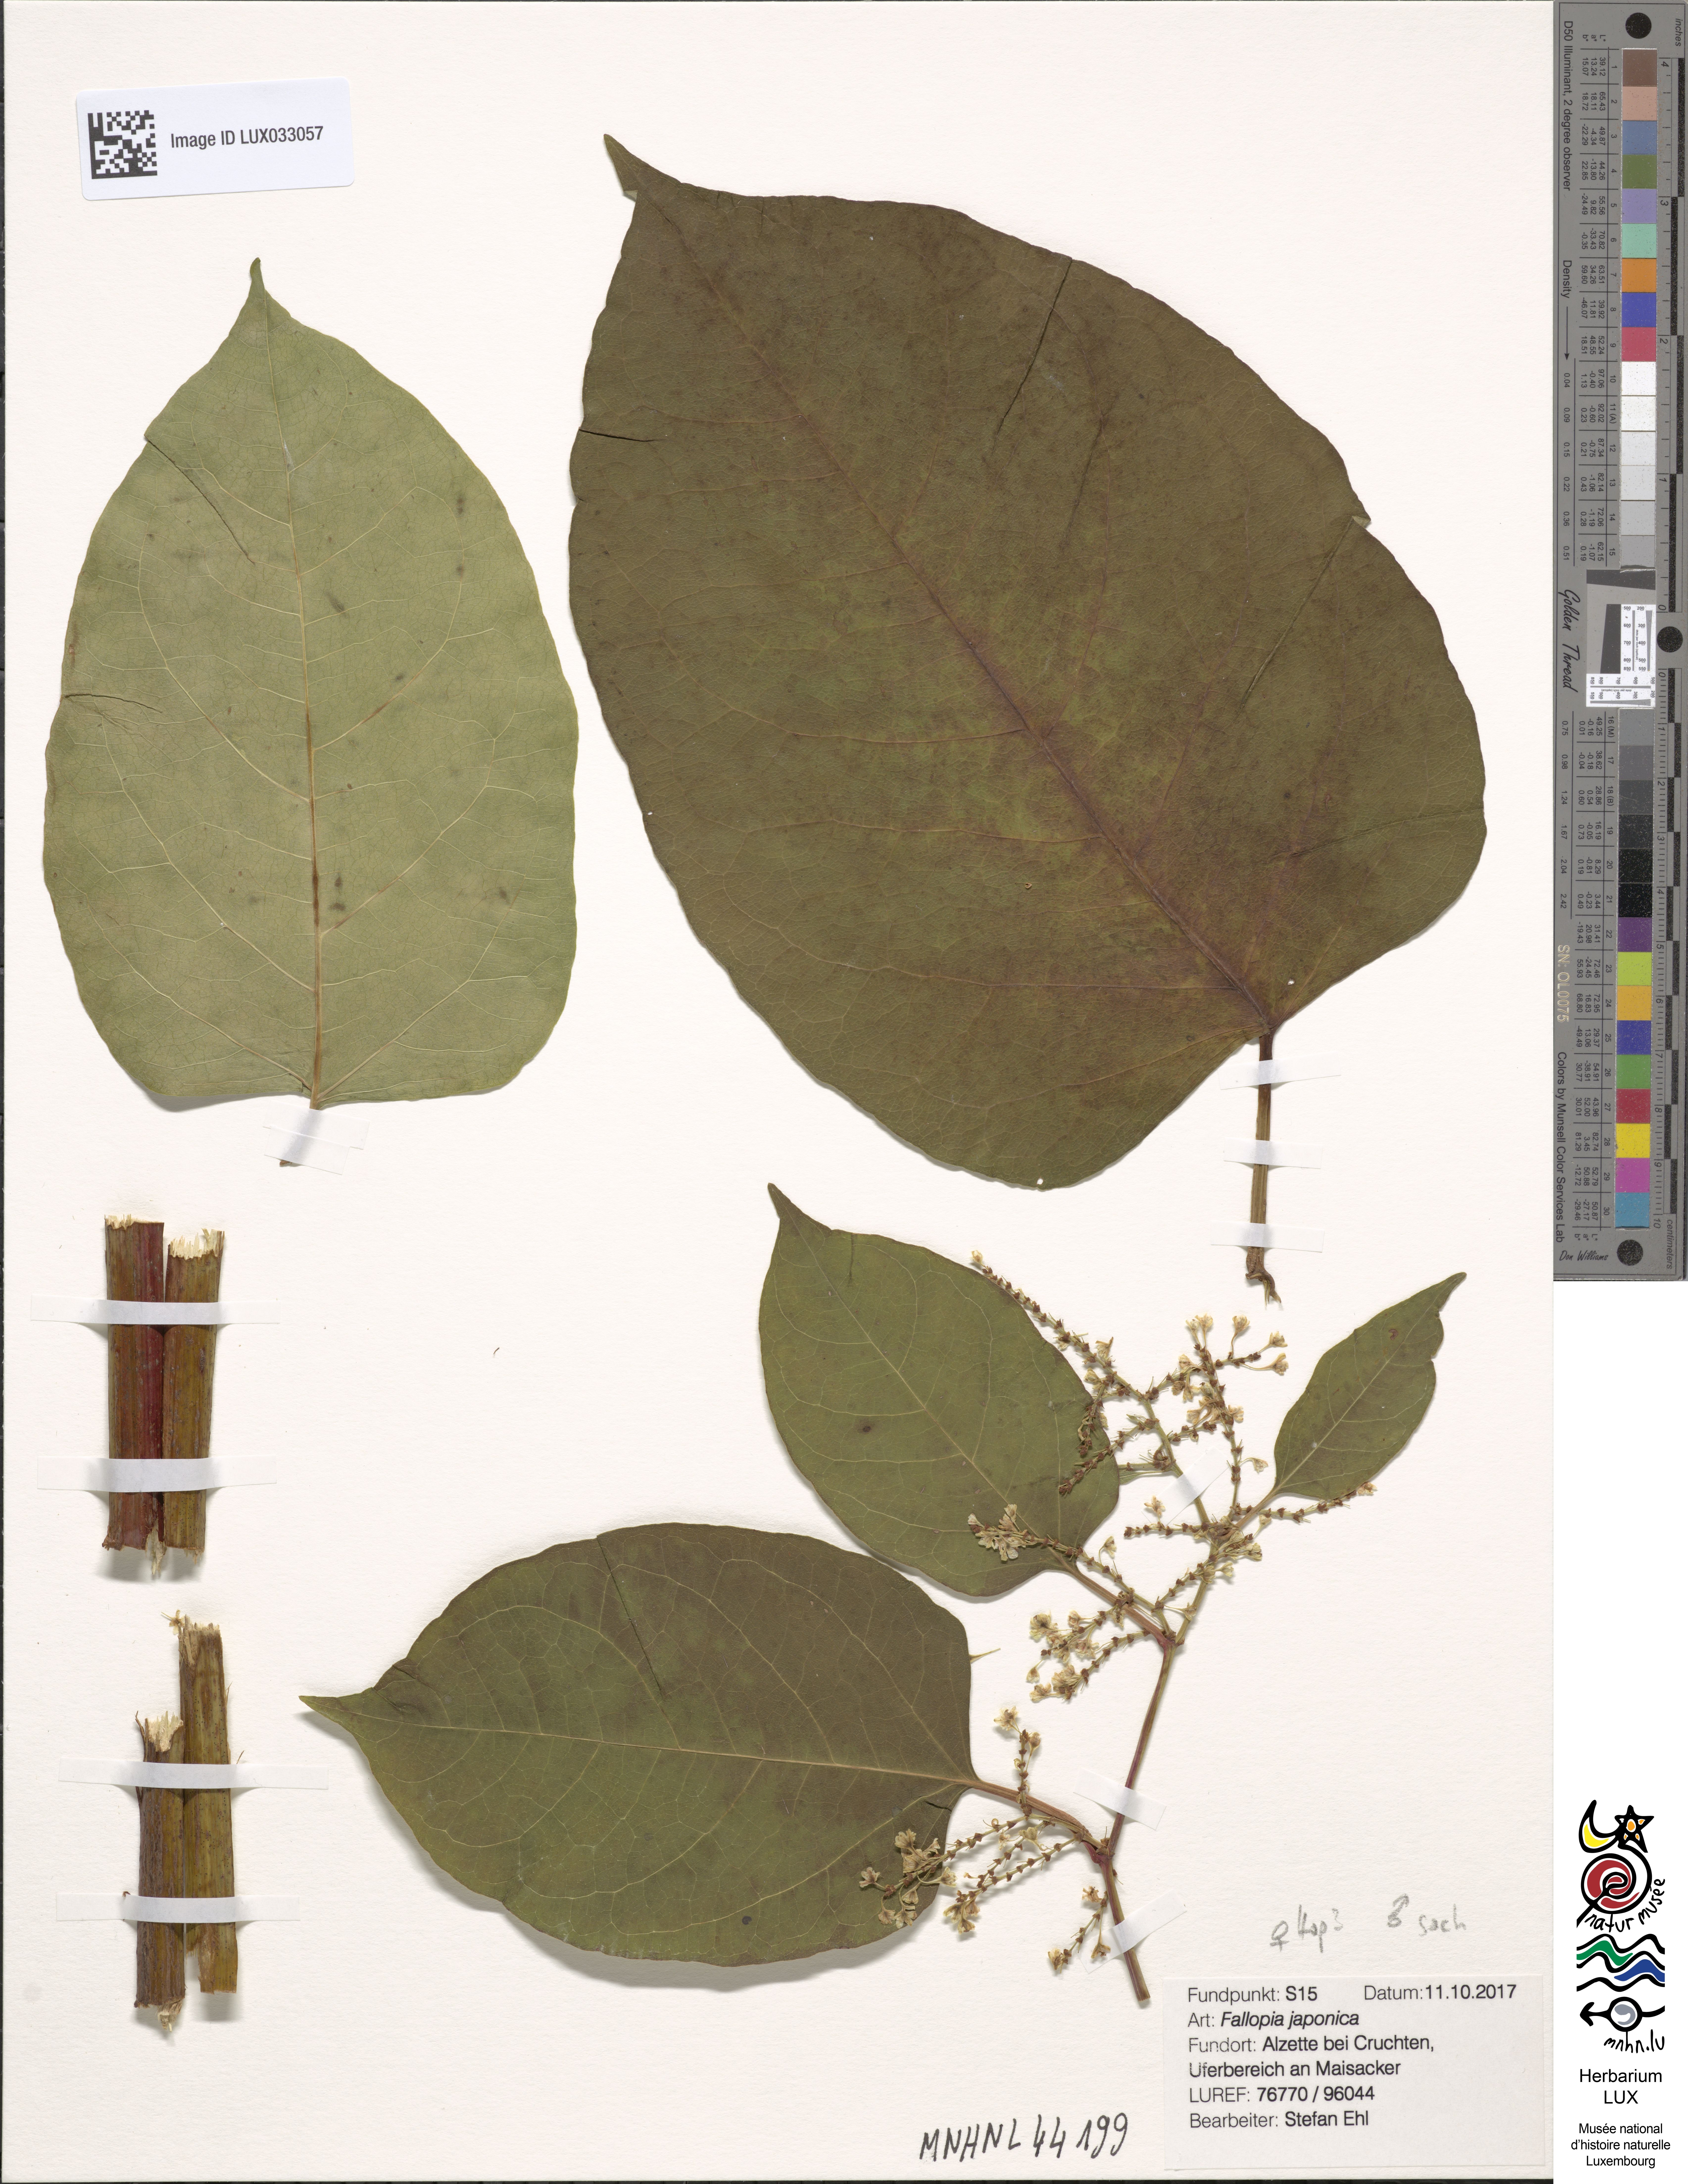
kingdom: Plantae
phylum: Tracheophyta
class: Magnoliopsida
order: Caryophyllales
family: Polygonaceae
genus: Reynoutria
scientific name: Reynoutria japonica
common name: Japanese knotweed
